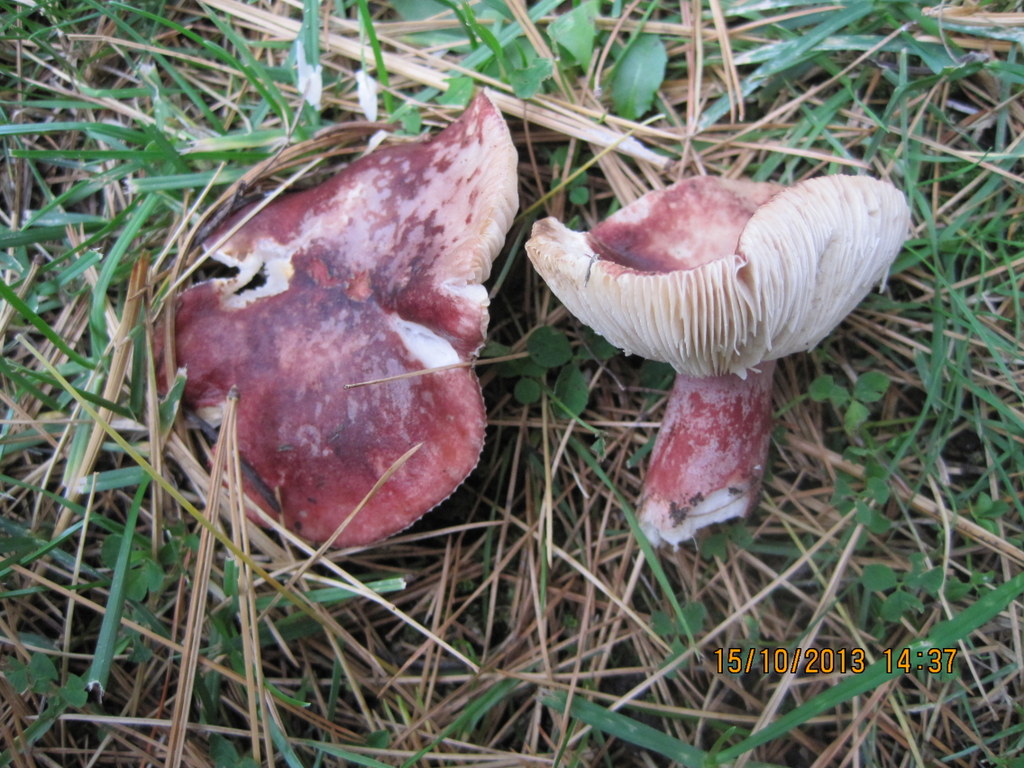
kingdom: Fungi
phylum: Basidiomycota
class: Agaricomycetes
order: Russulales
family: Russulaceae
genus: Russula
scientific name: Russula queletii
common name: Quélets skørhat
